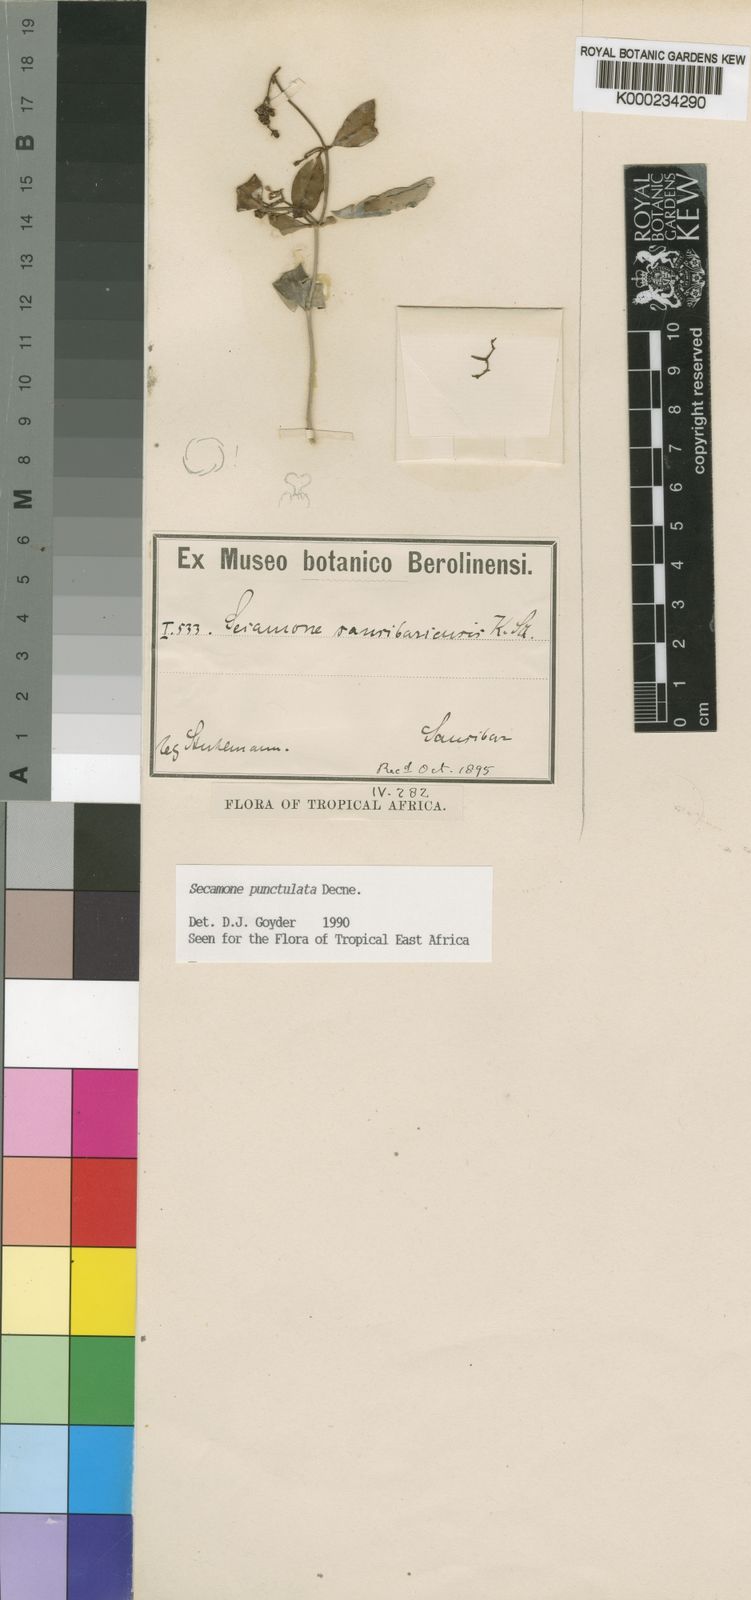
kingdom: Plantae
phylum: Tracheophyta
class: Magnoliopsida
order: Gentianales
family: Apocynaceae
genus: Secamone
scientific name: Secamone punctulata
